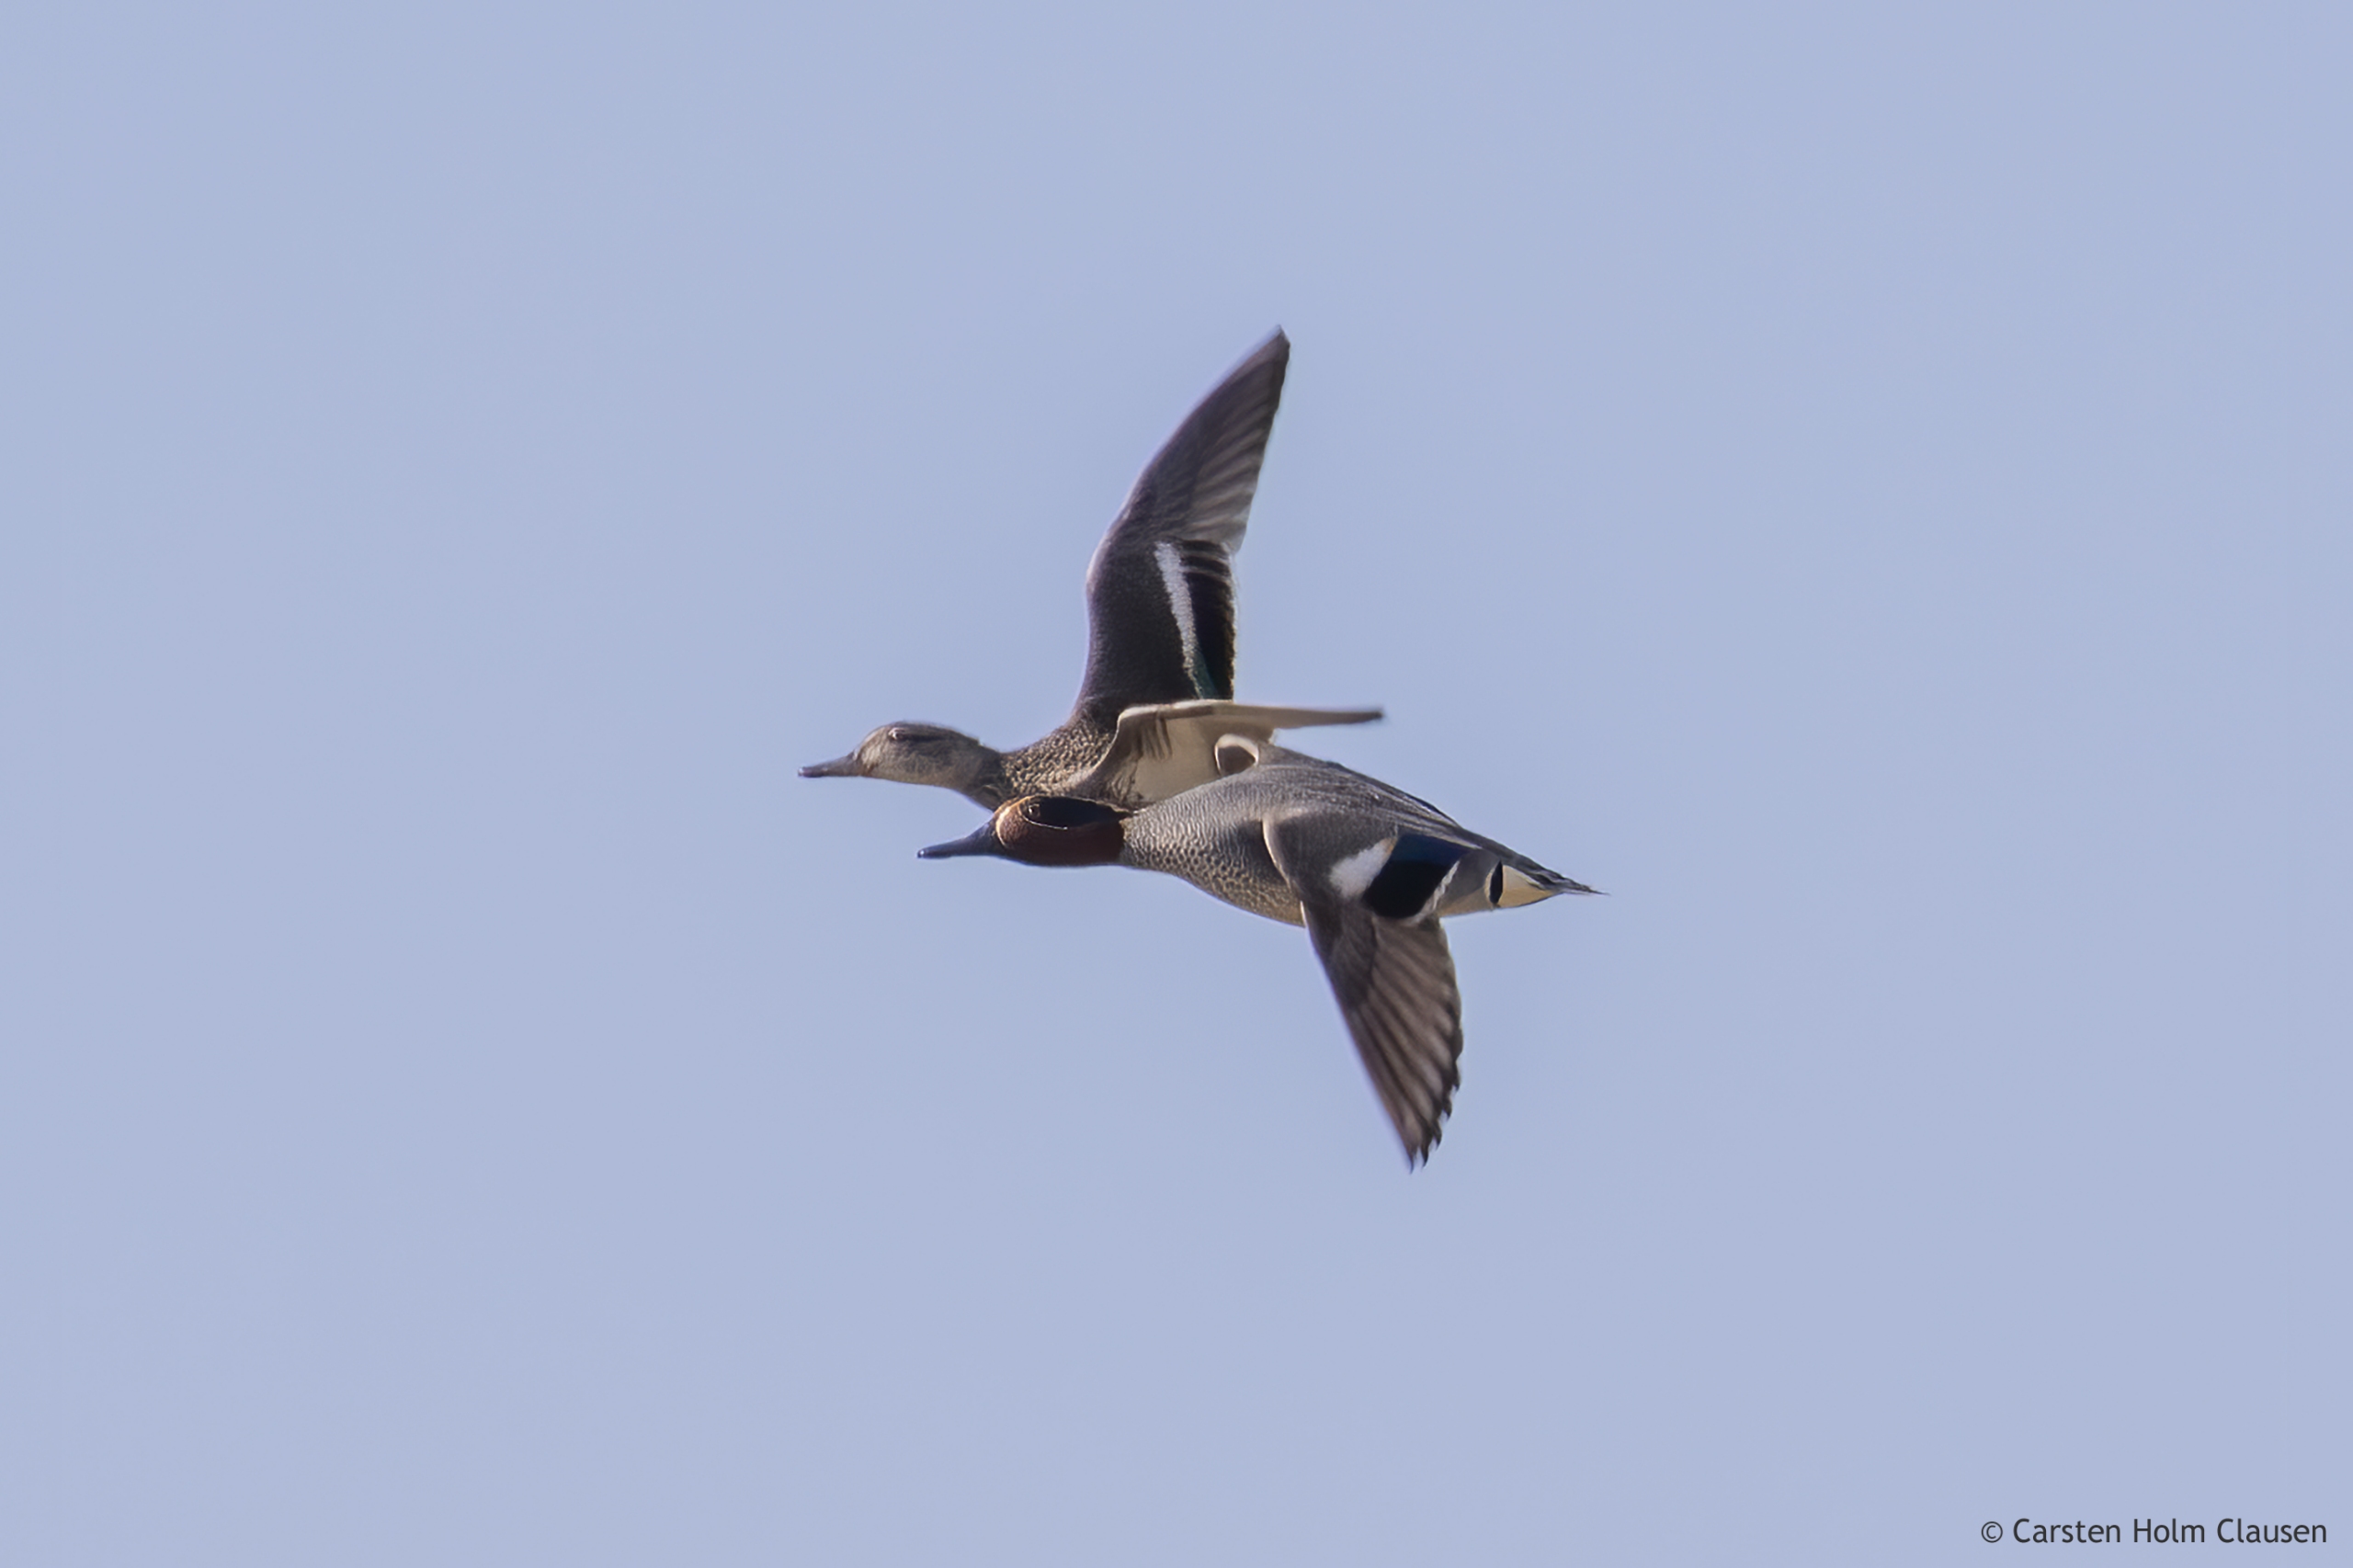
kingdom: Animalia
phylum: Chordata
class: Aves
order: Anseriformes
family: Anatidae
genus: Anas
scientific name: Anas crecca
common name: Krikand
